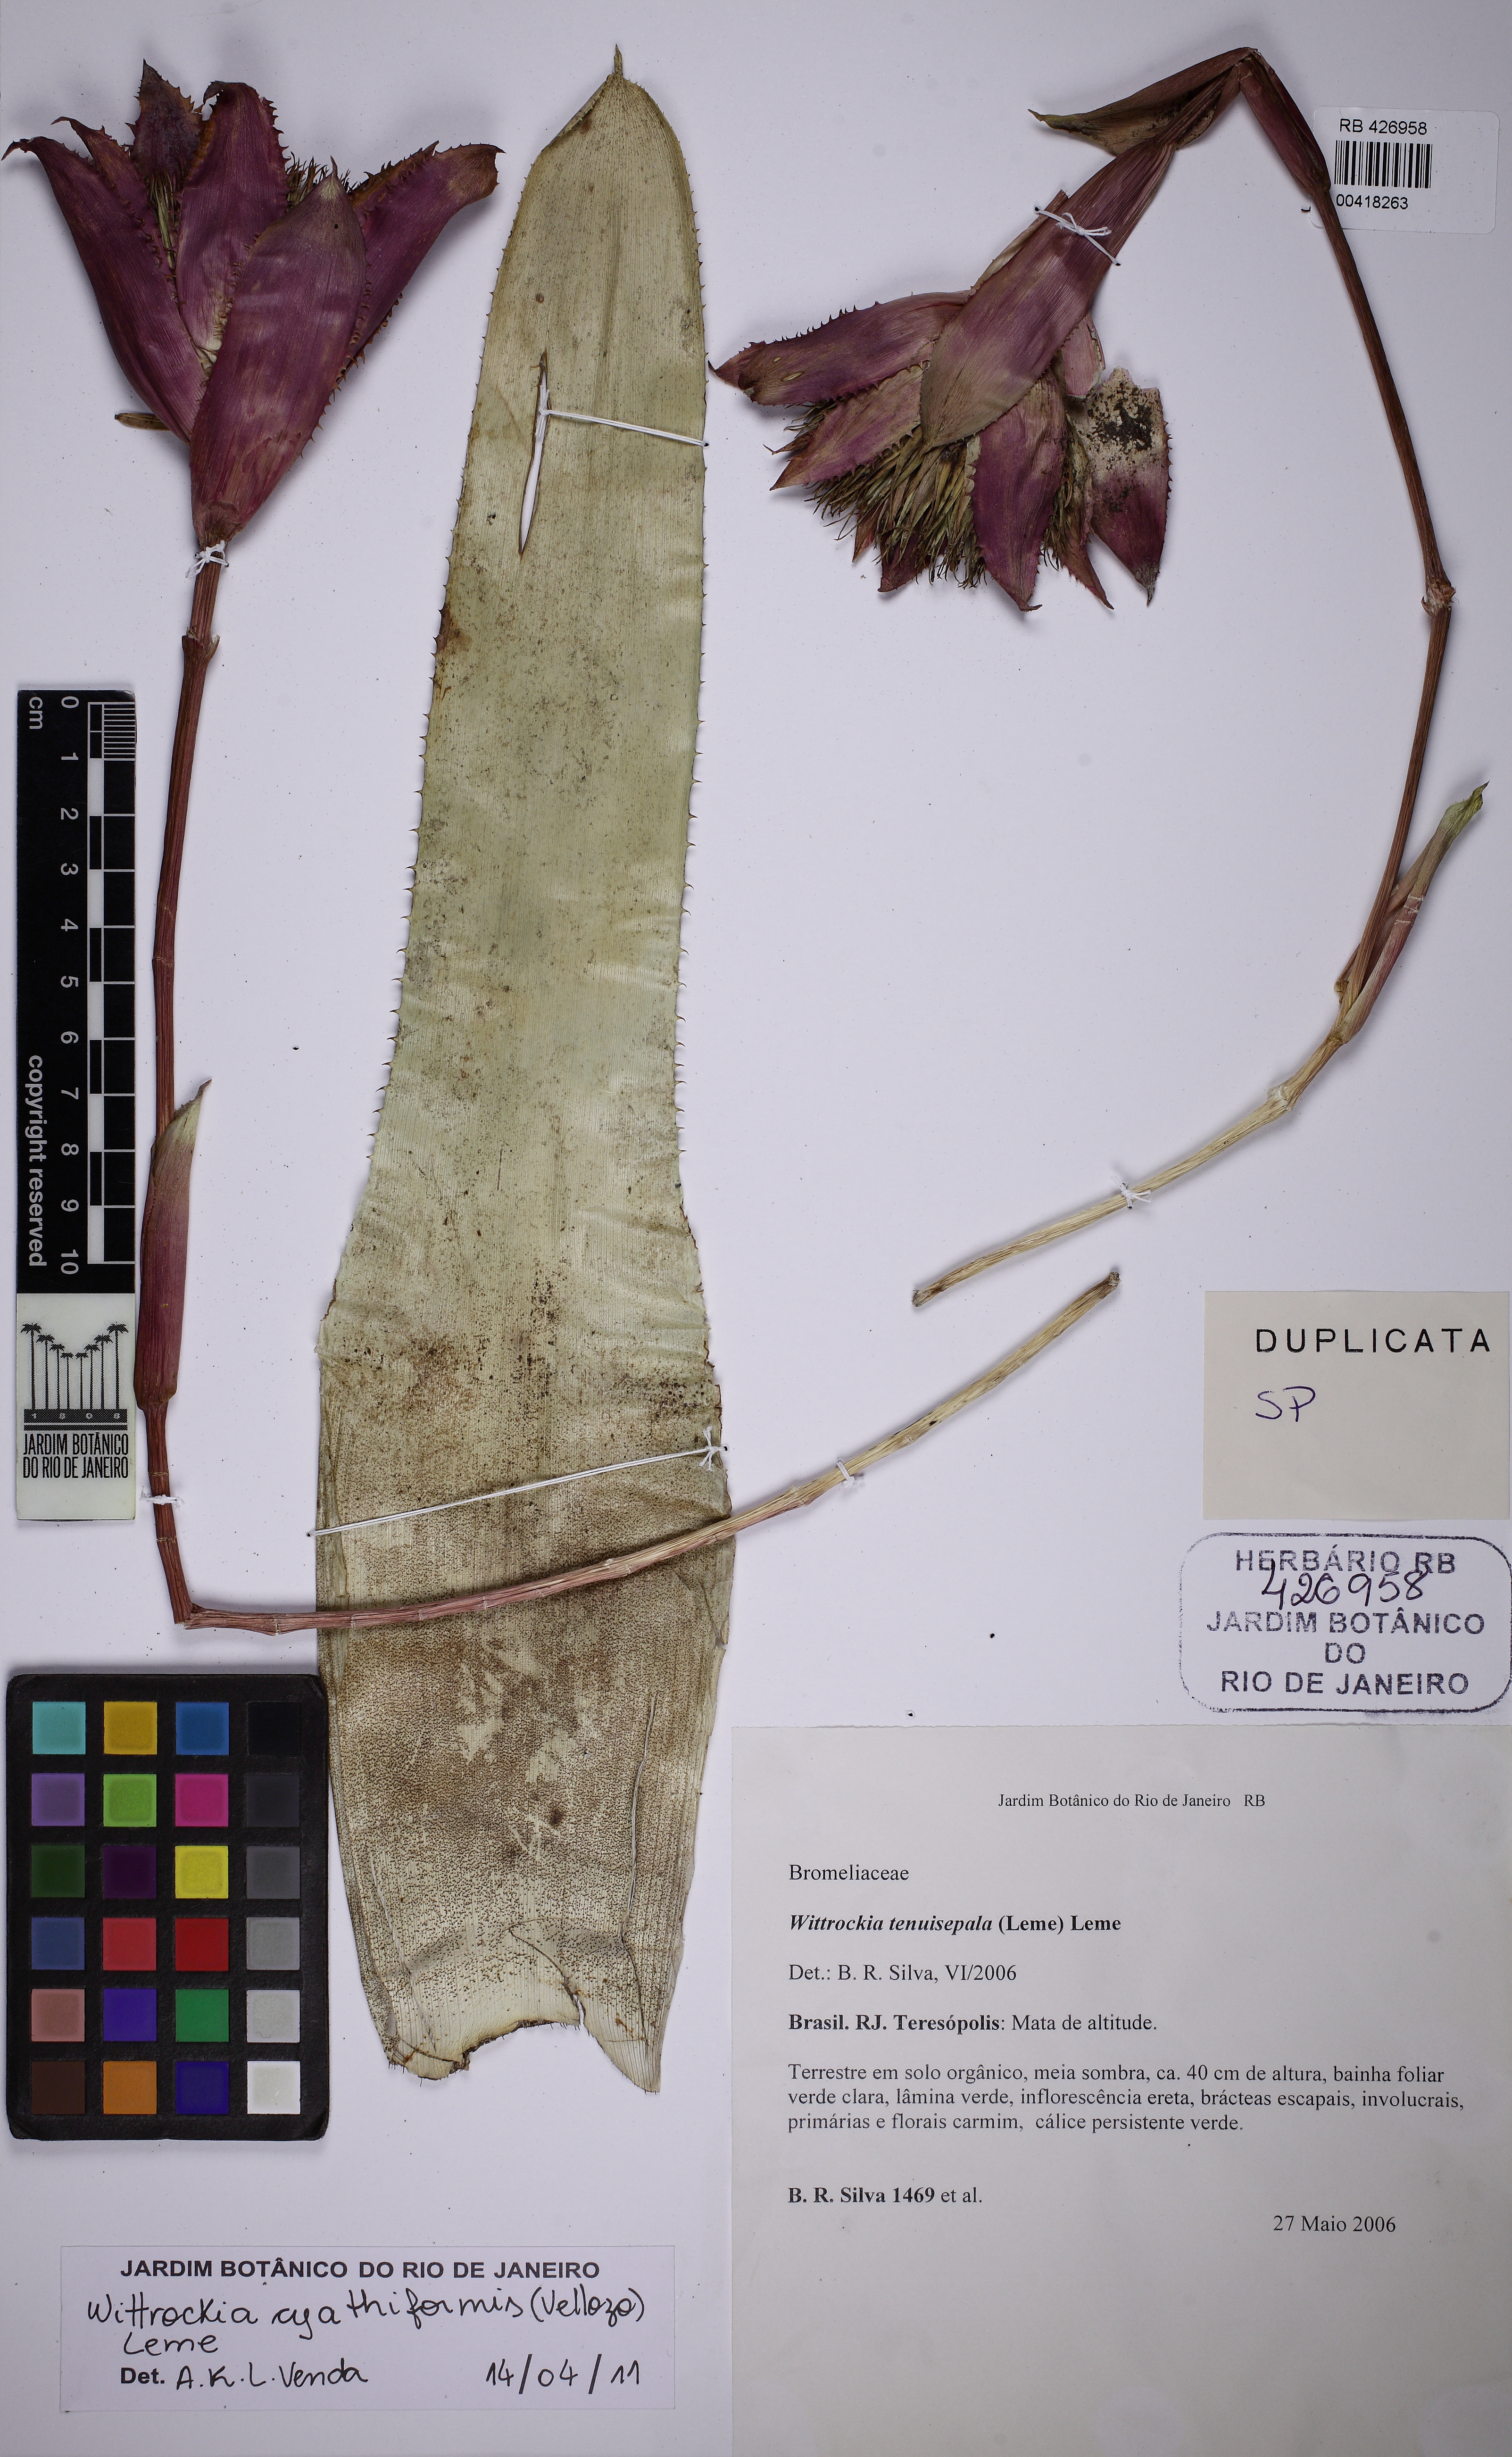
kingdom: Plantae
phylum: Tracheophyta
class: Liliopsida
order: Poales
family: Bromeliaceae
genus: Wittrockia
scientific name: Wittrockia tenuisepala
